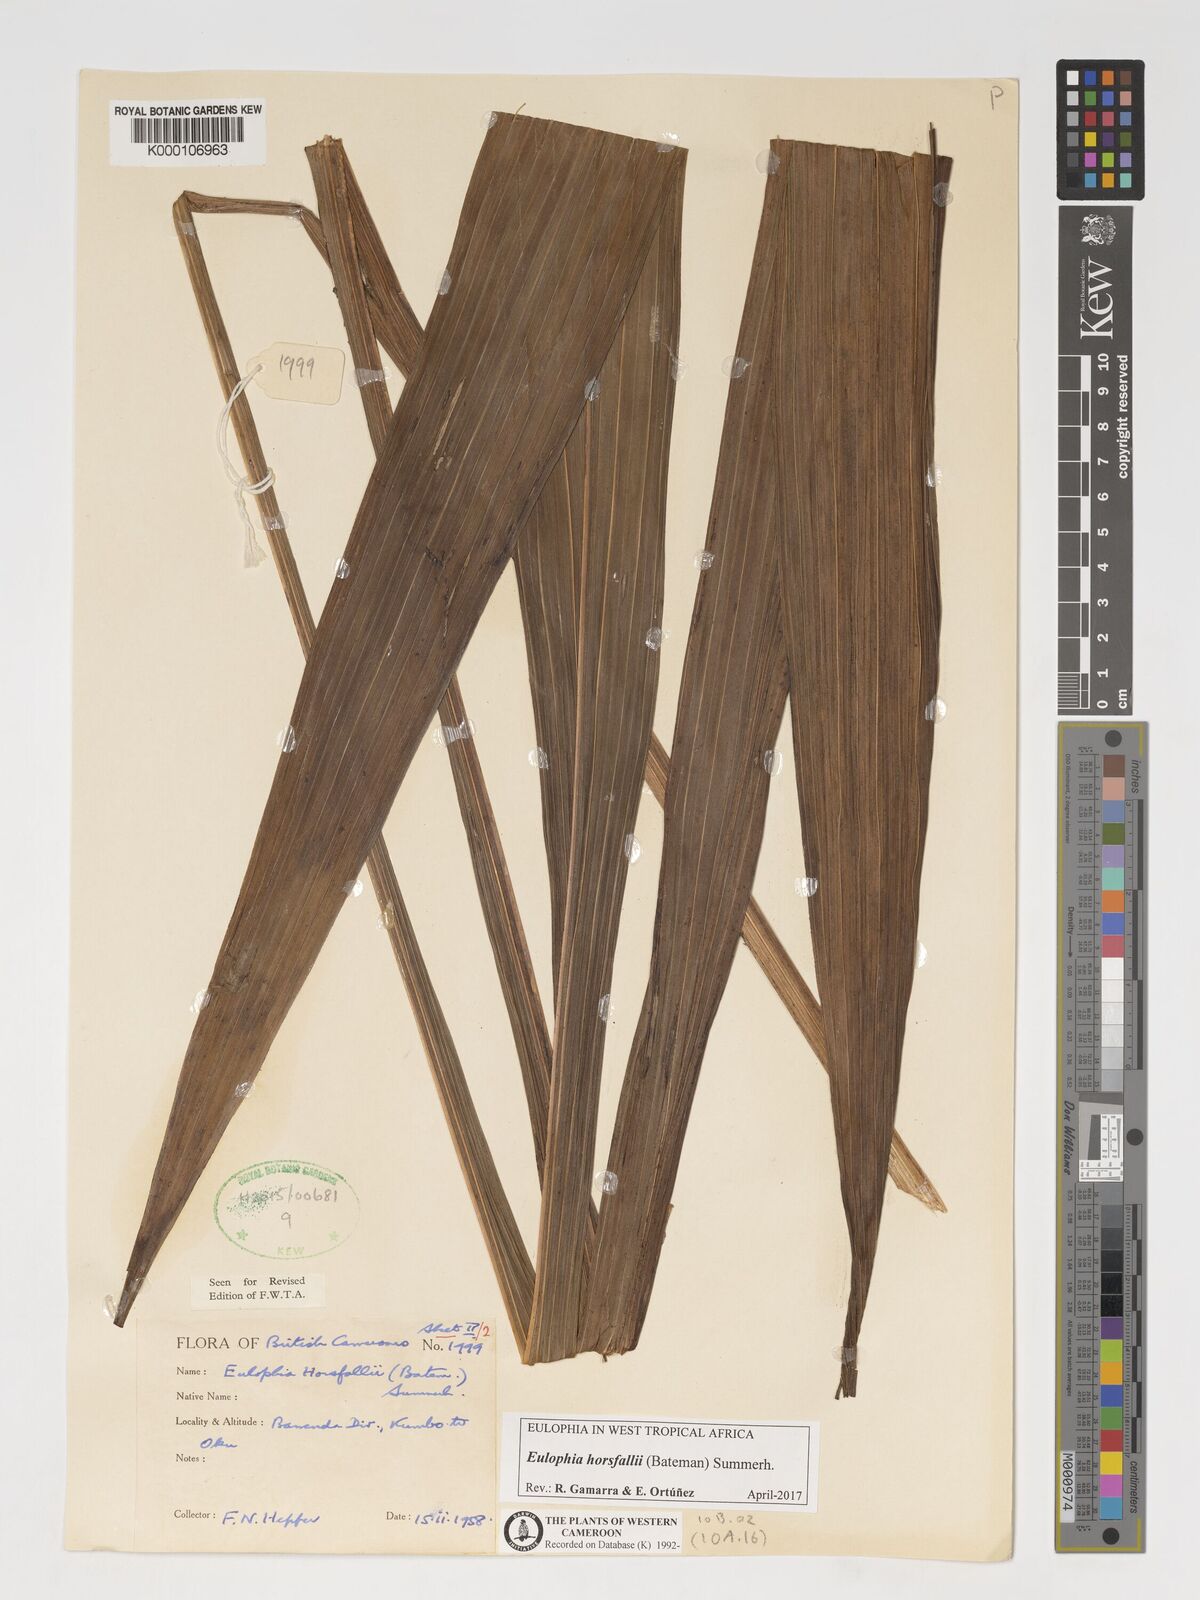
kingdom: Plantae
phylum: Tracheophyta
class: Liliopsida
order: Asparagales
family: Orchidaceae
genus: Eulophia
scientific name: Eulophia horsfallii
